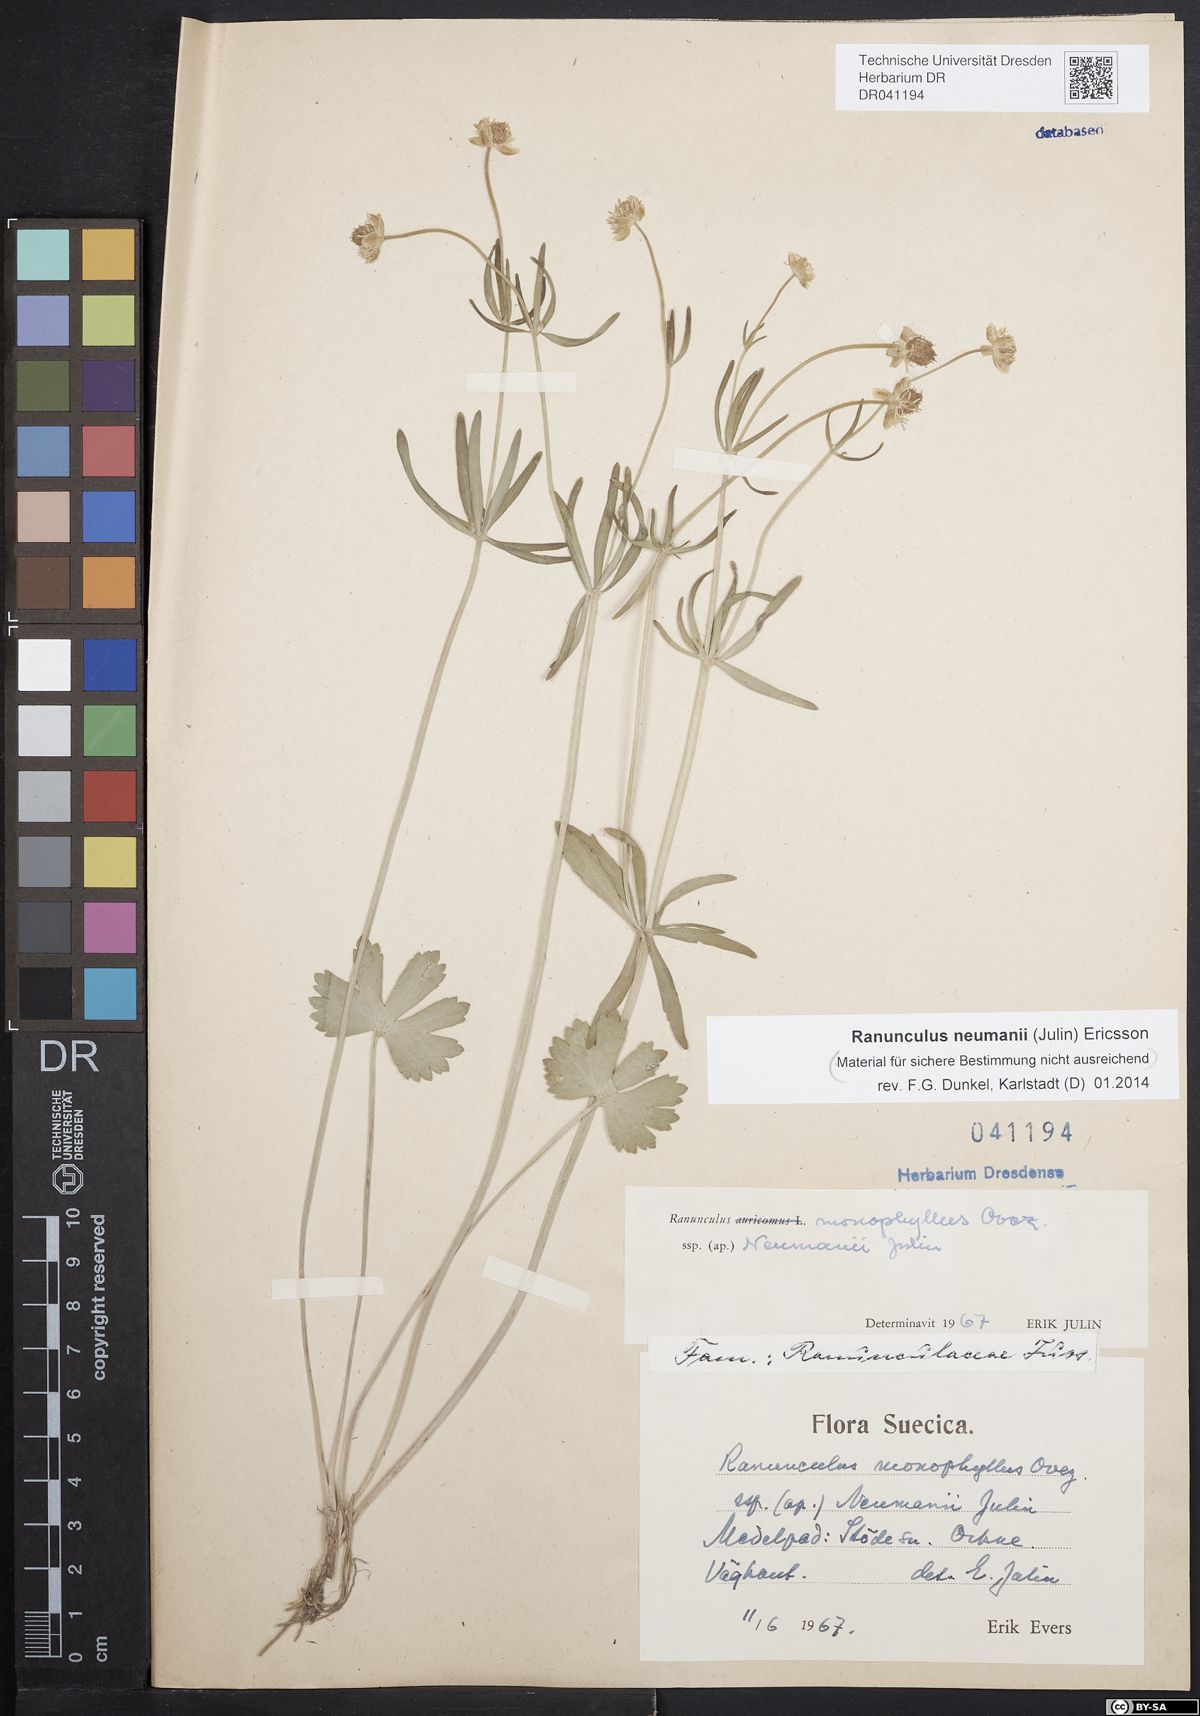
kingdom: Plantae
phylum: Tracheophyta
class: Magnoliopsida
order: Ranunculales
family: Ranunculaceae
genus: Ranunculus
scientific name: Ranunculus neumanii
